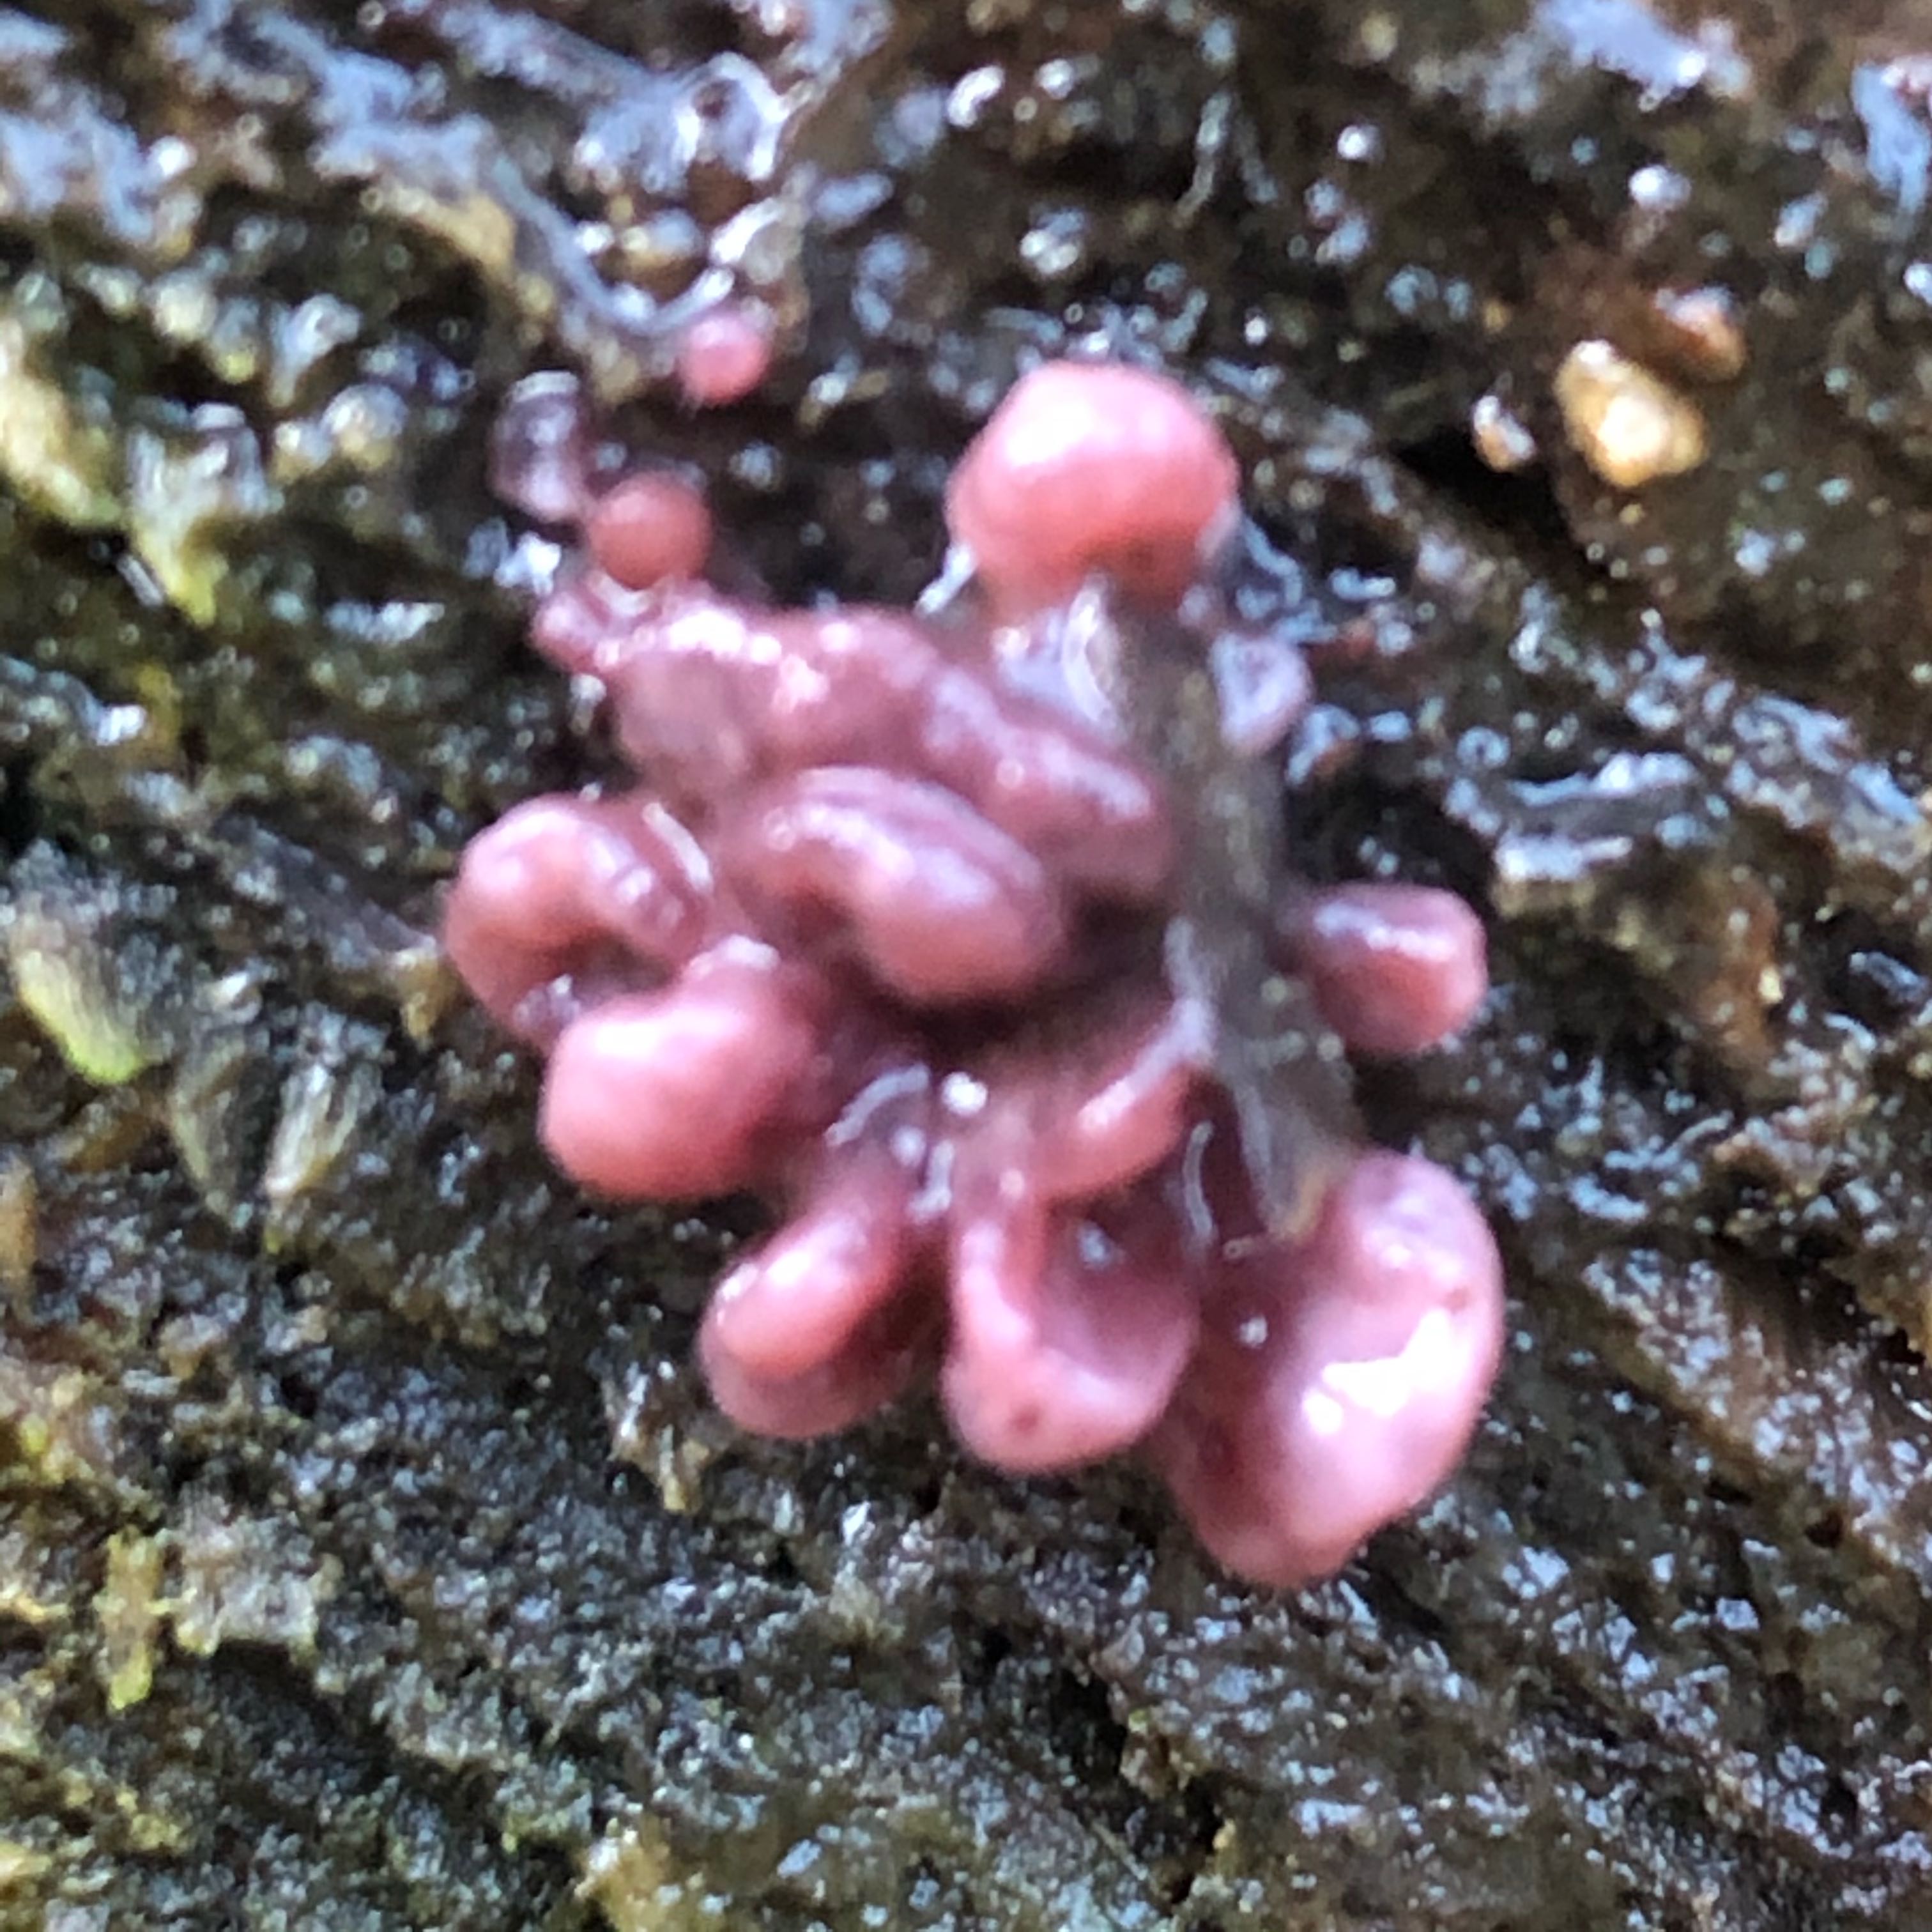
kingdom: Fungi
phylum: Ascomycota
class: Leotiomycetes
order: Helotiales
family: Gelatinodiscaceae
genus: Ascocoryne
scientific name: Ascocoryne sarcoides
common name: rødlilla sejskive
